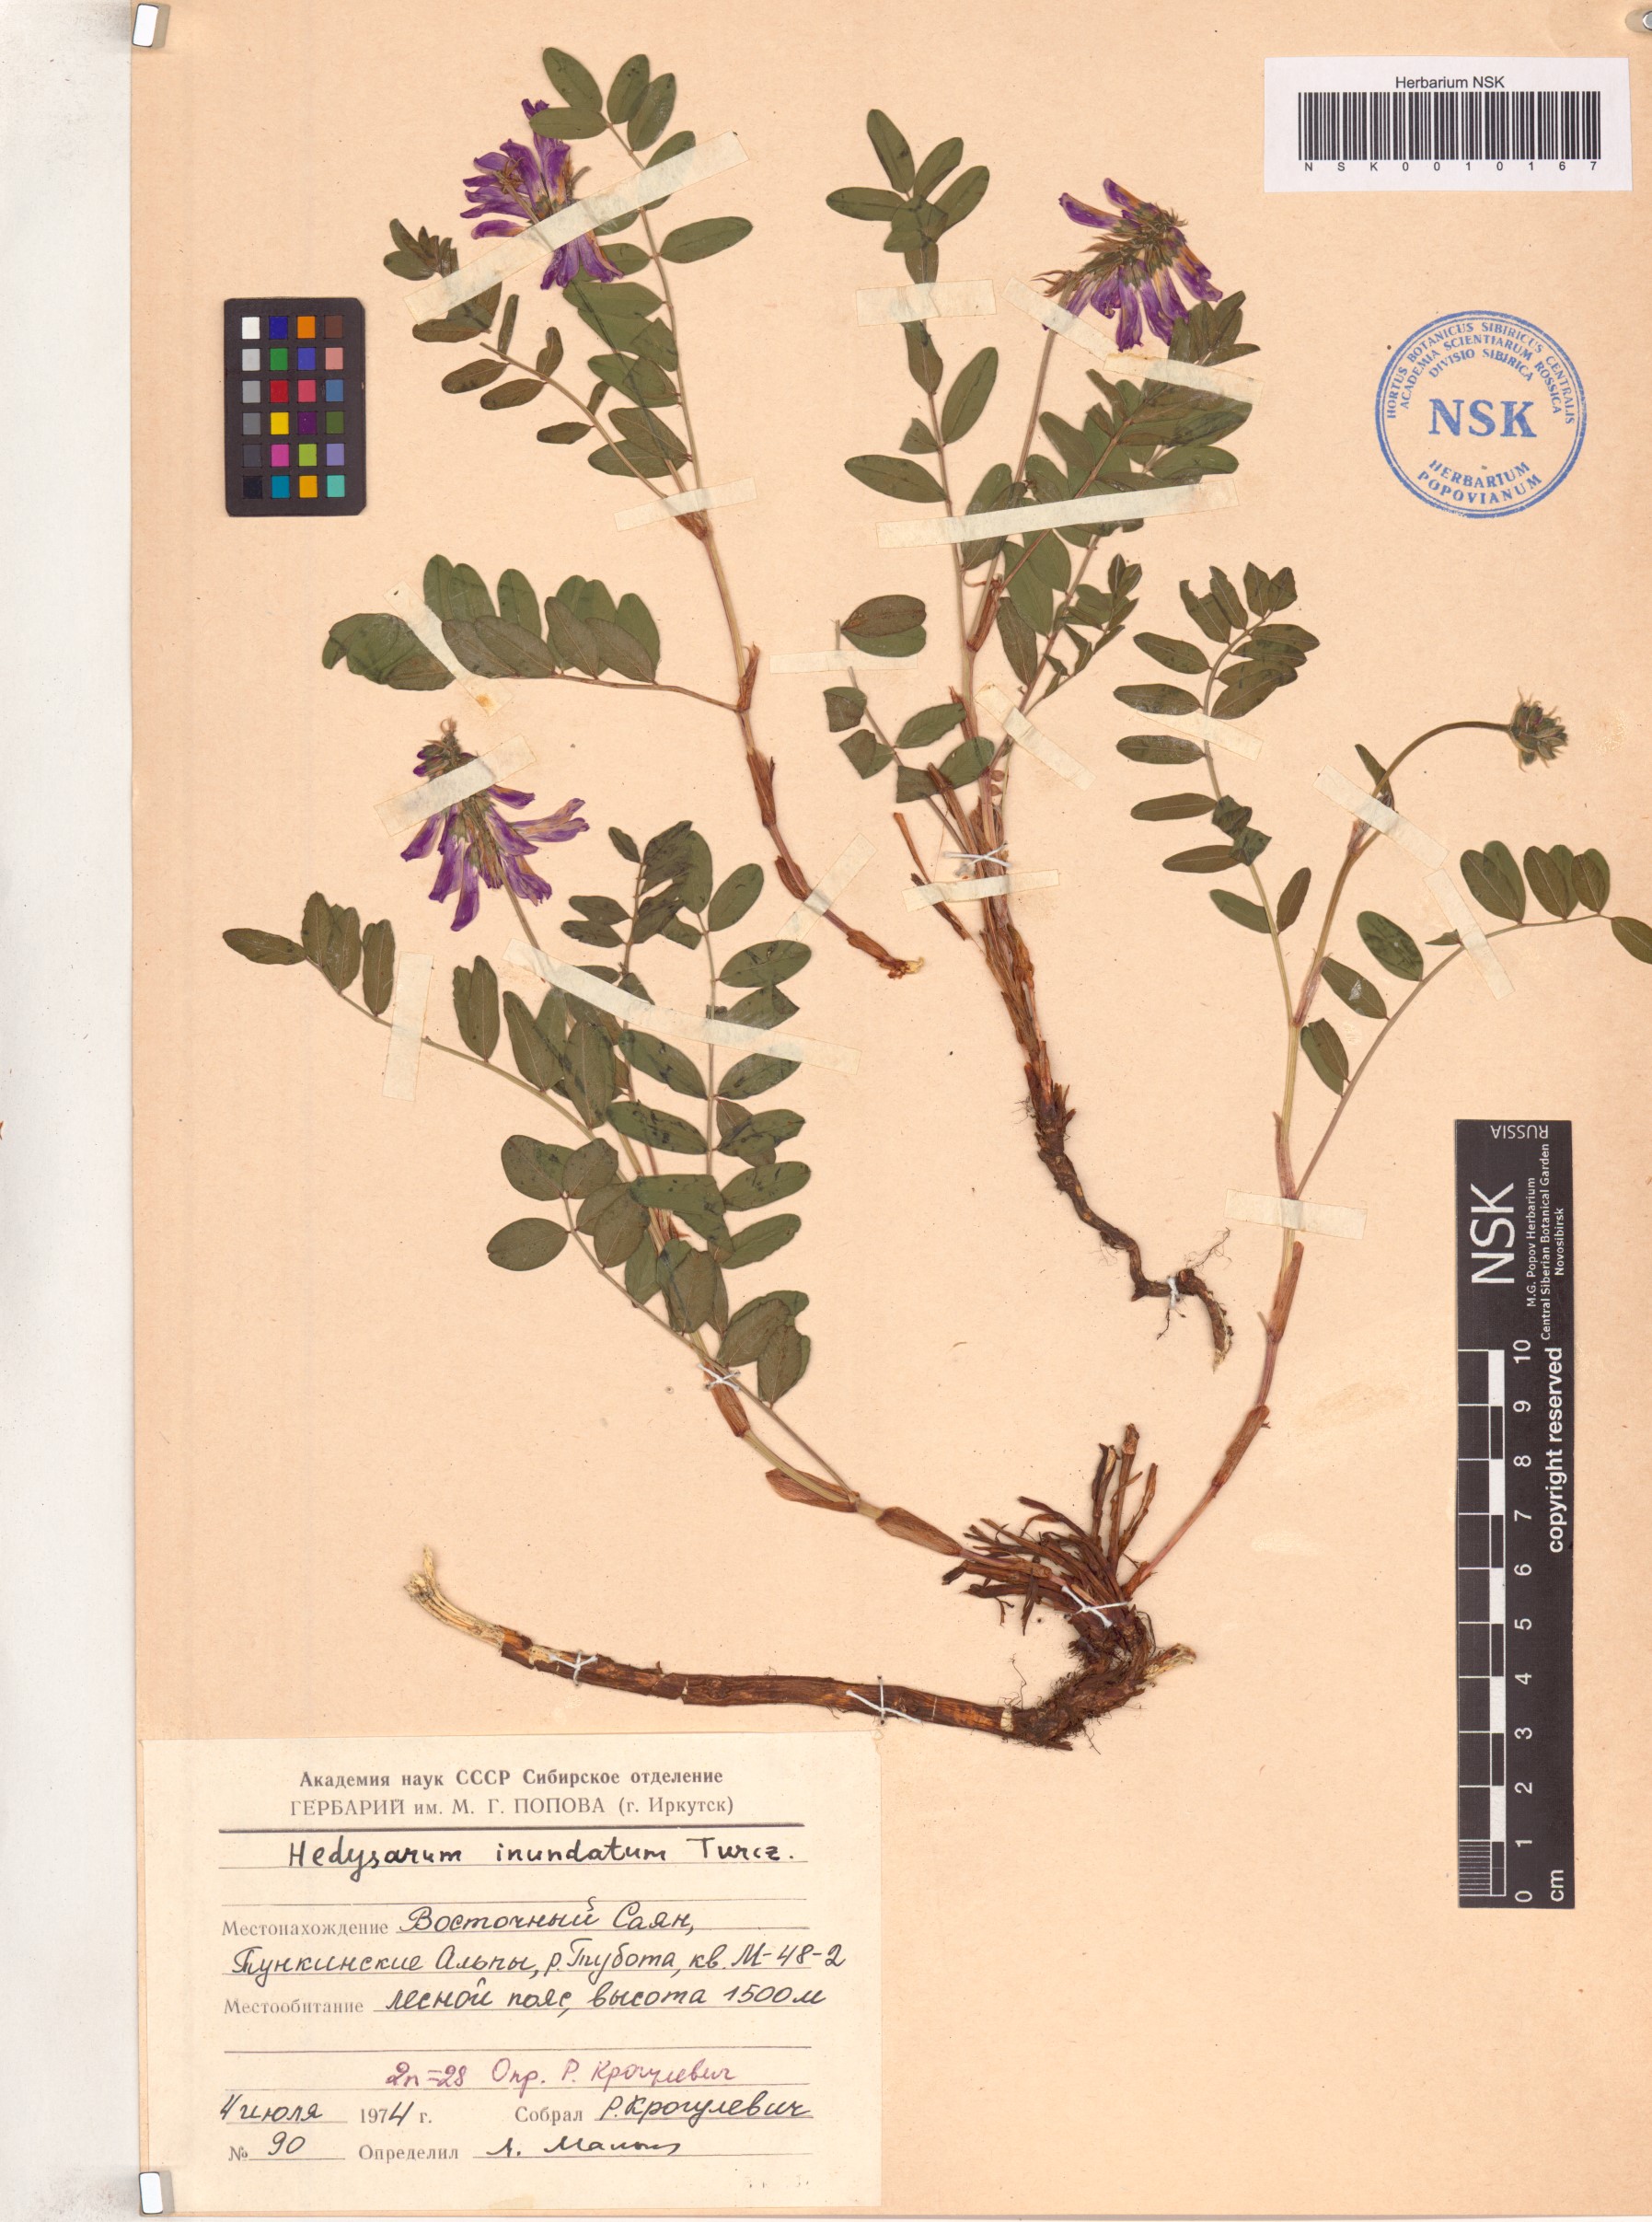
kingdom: Plantae
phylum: Tracheophyta
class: Magnoliopsida
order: Fabales
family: Fabaceae
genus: Hedysarum
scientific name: Hedysarum inundatum
